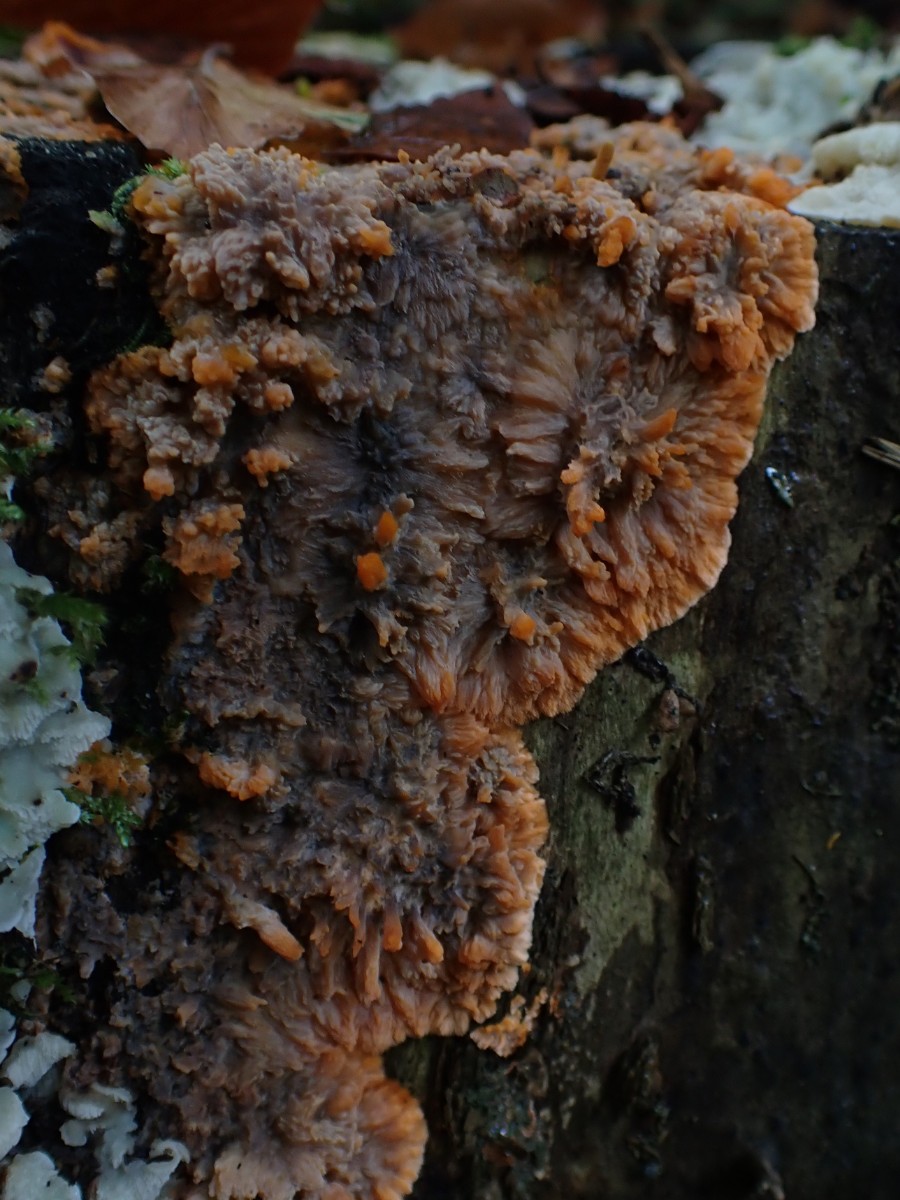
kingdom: Fungi
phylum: Basidiomycota
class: Agaricomycetes
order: Polyporales
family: Meruliaceae
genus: Phlebia
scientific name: Phlebia radiata
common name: stråle-åresvamp
